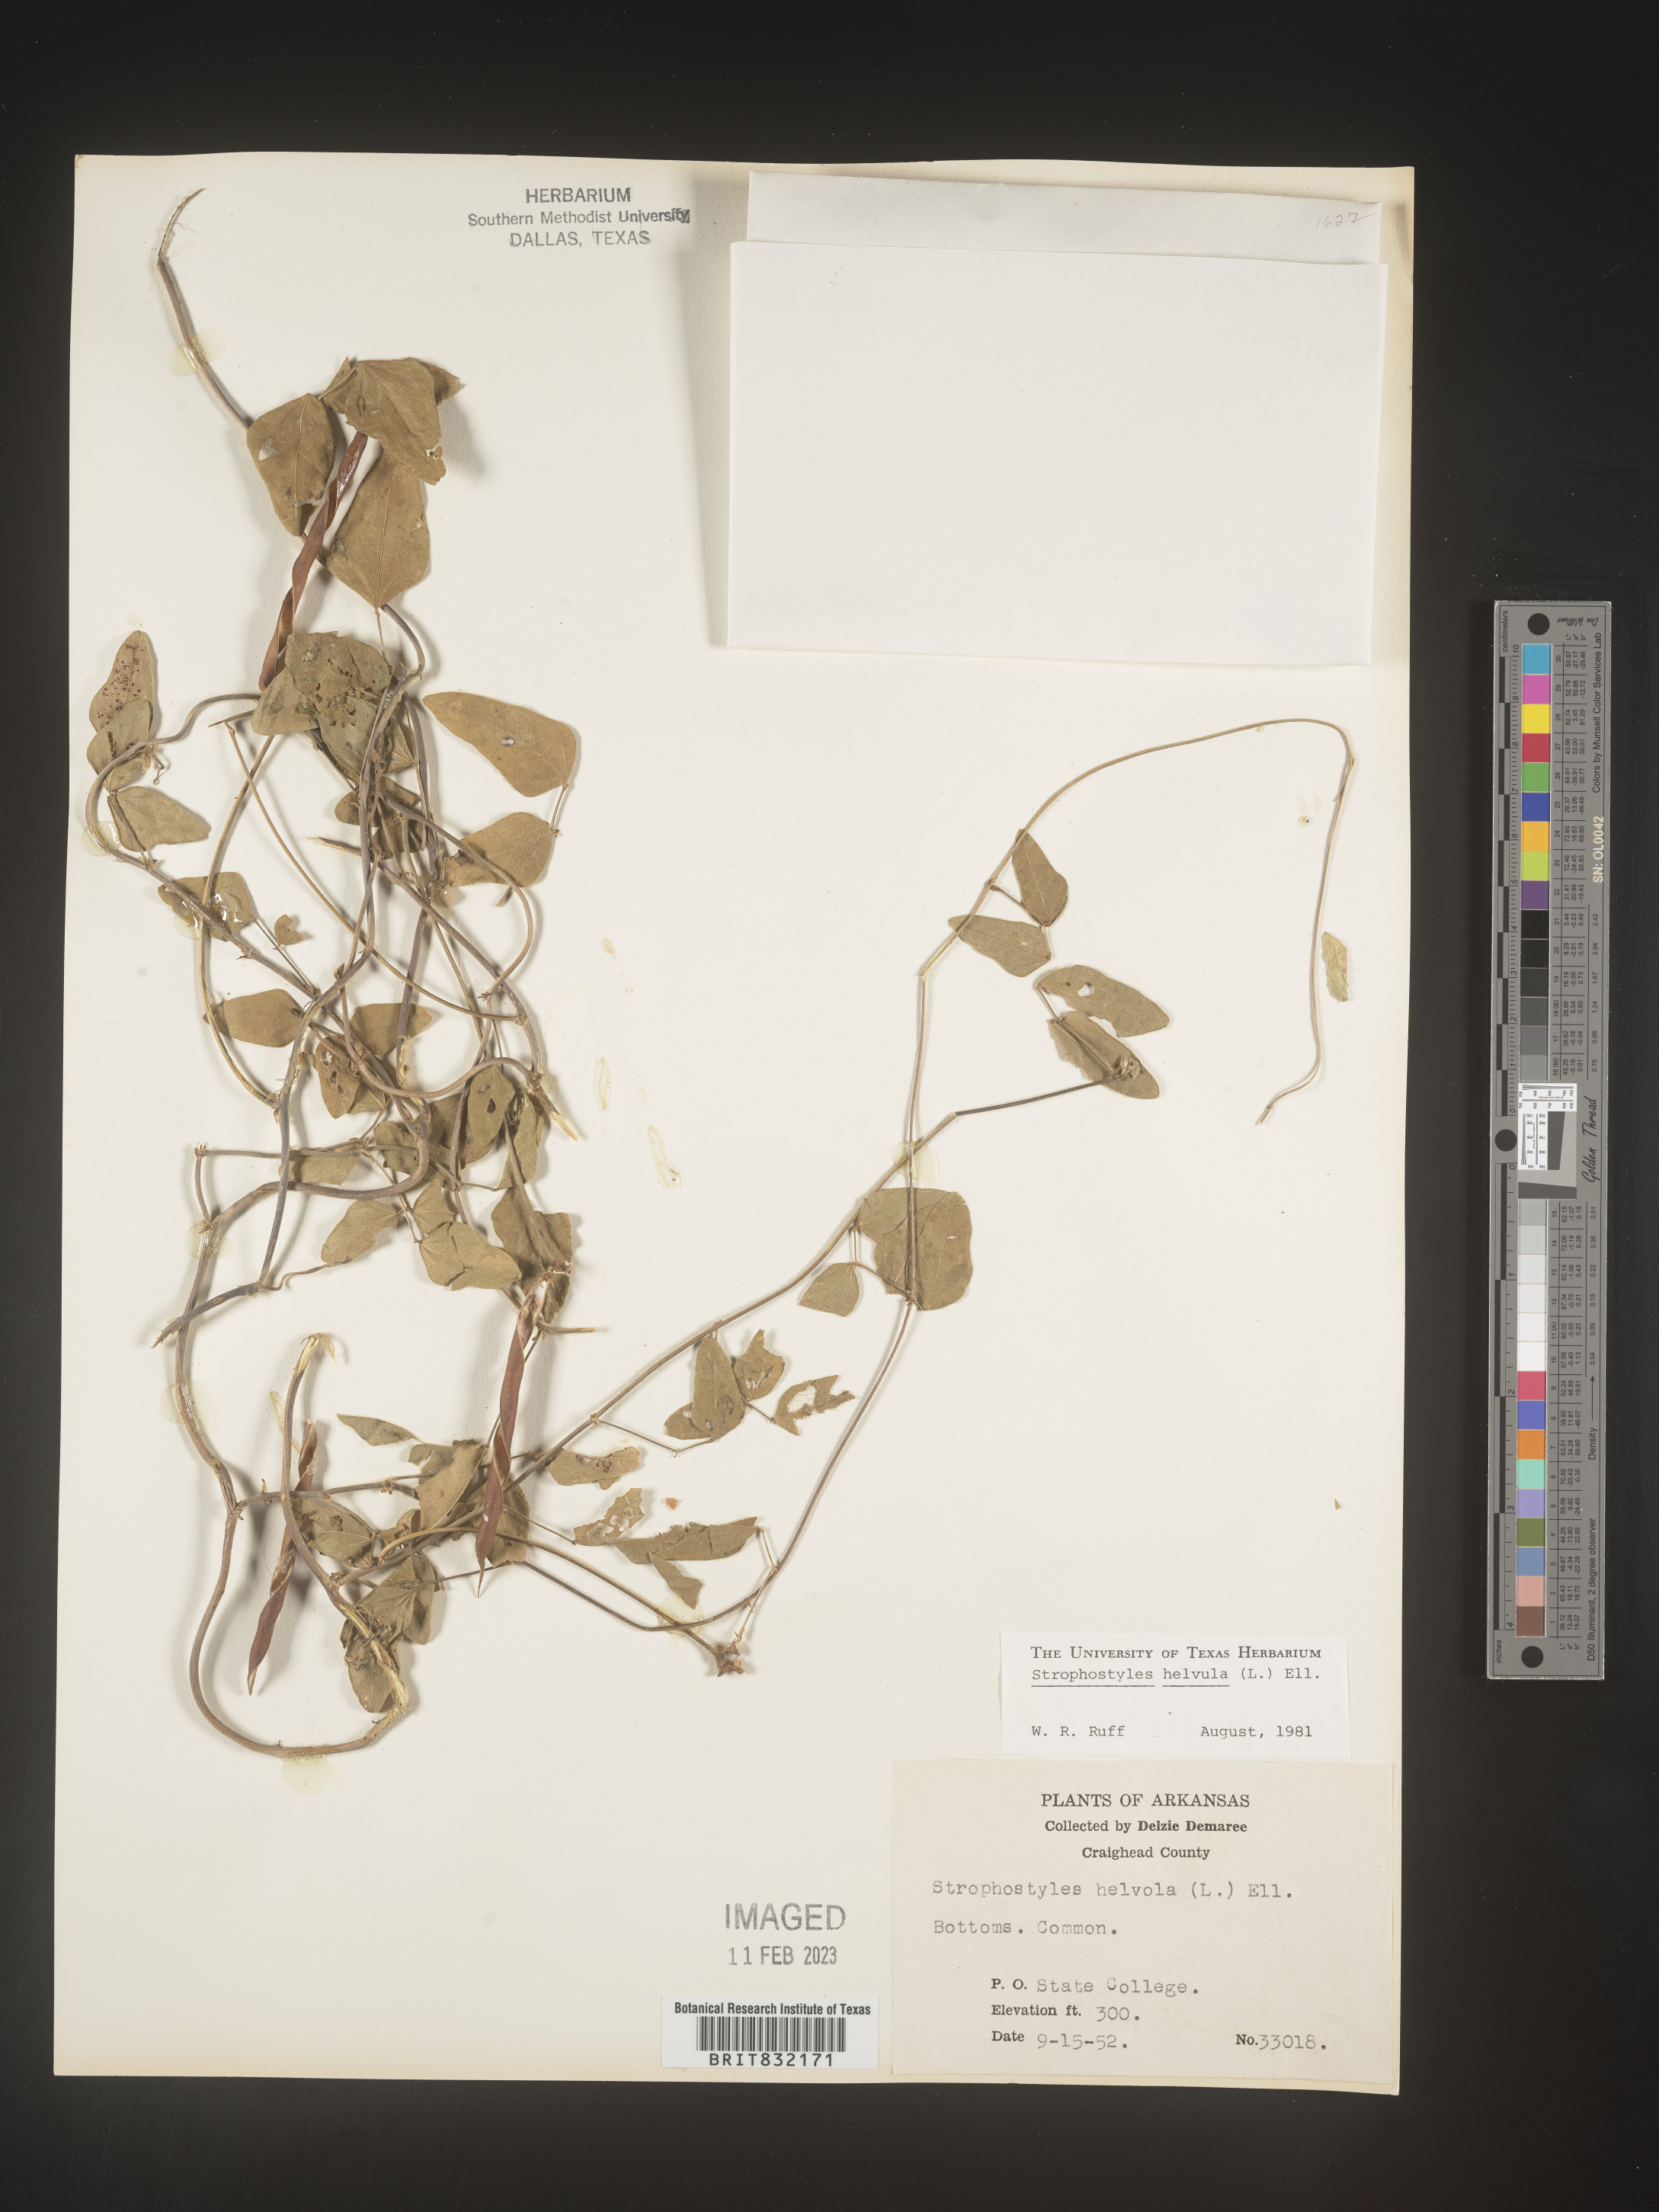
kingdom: Plantae
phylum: Tracheophyta
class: Magnoliopsida
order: Fabales
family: Fabaceae
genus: Strophostyles
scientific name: Strophostyles helvola
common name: Trailing wild bean
